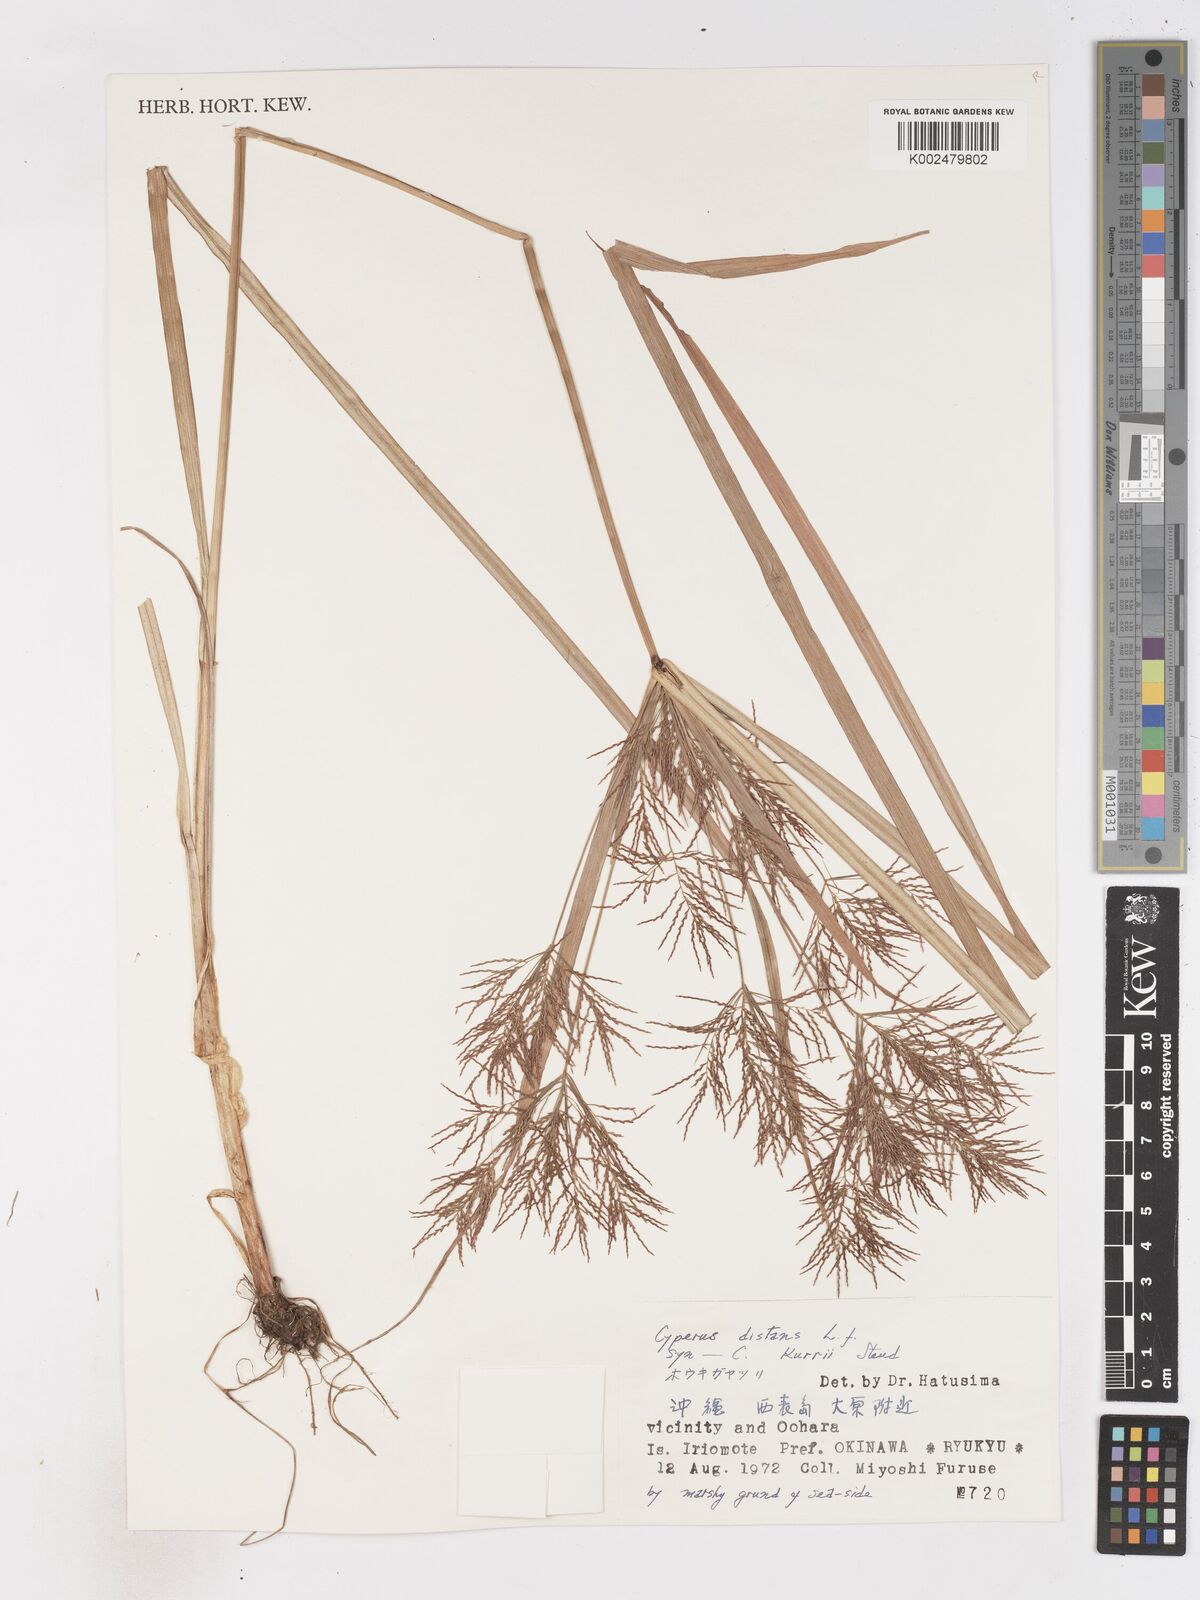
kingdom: Plantae
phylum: Tracheophyta
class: Liliopsida
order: Poales
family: Cyperaceae
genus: Cyperus
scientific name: Cyperus distans
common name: Slender cyperus
